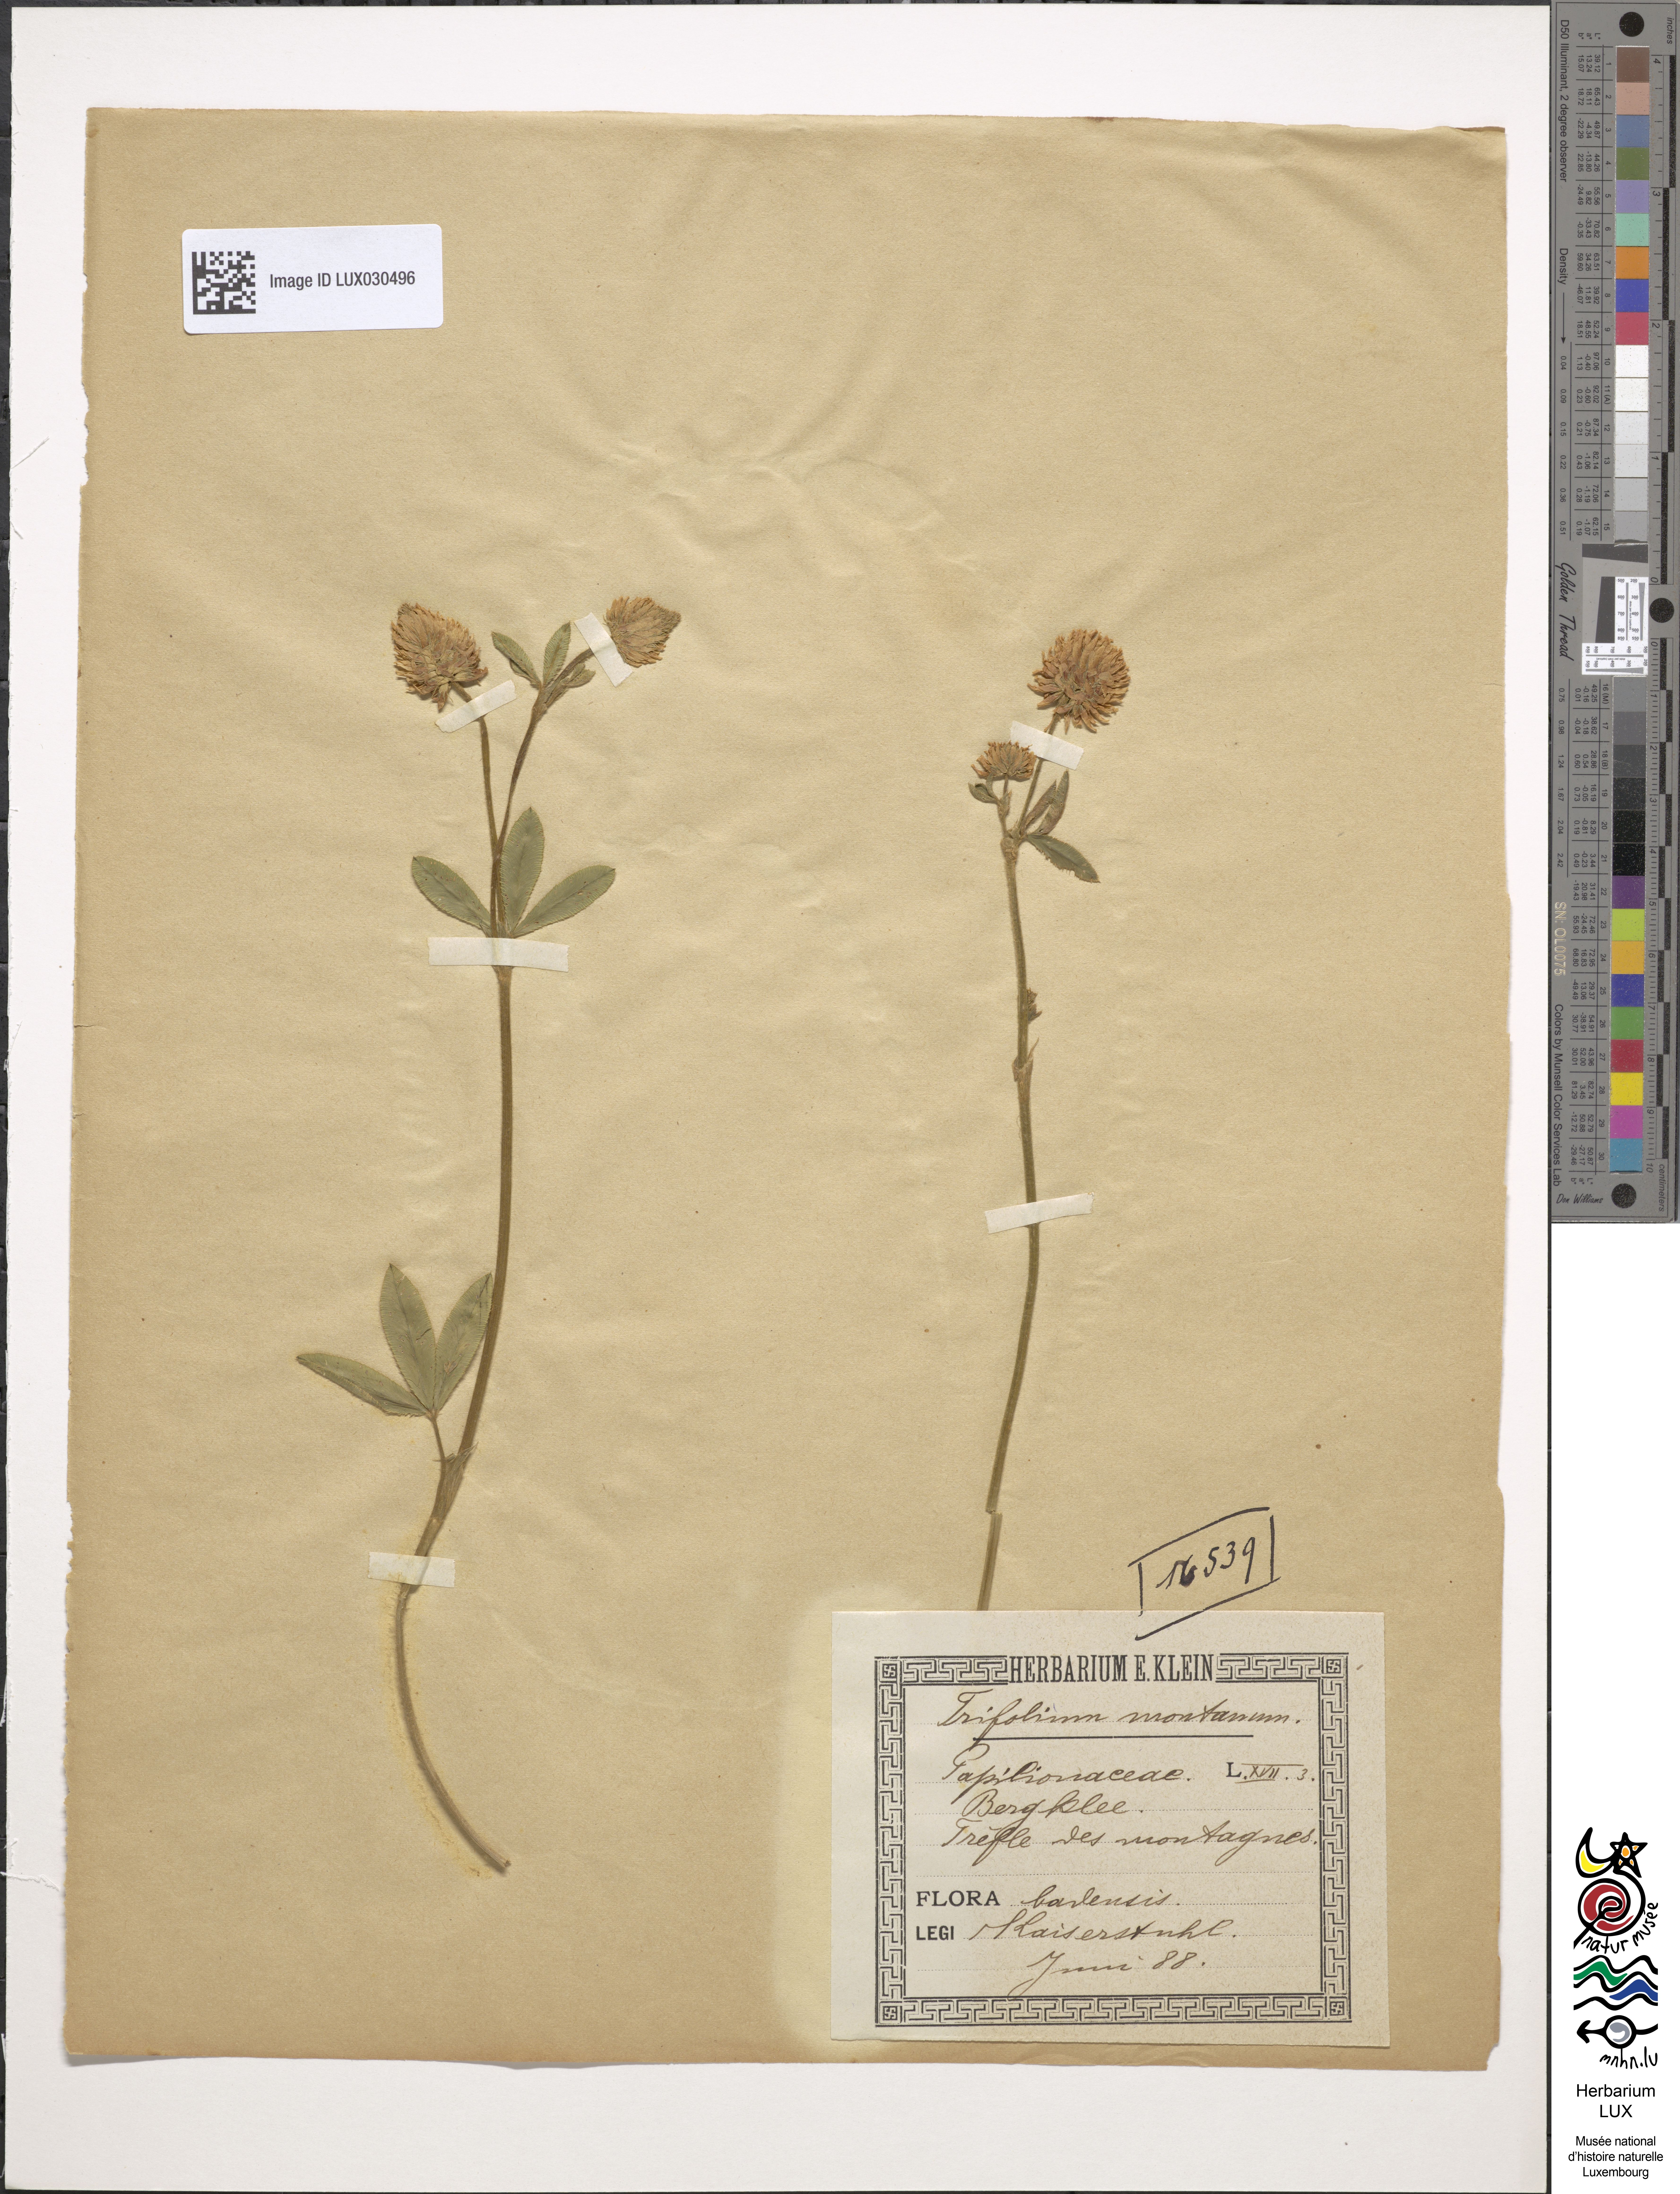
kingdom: Plantae
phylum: Tracheophyta
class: Magnoliopsida
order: Fabales
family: Fabaceae
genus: Trifolium
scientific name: Trifolium montanum
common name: Mountain clover
